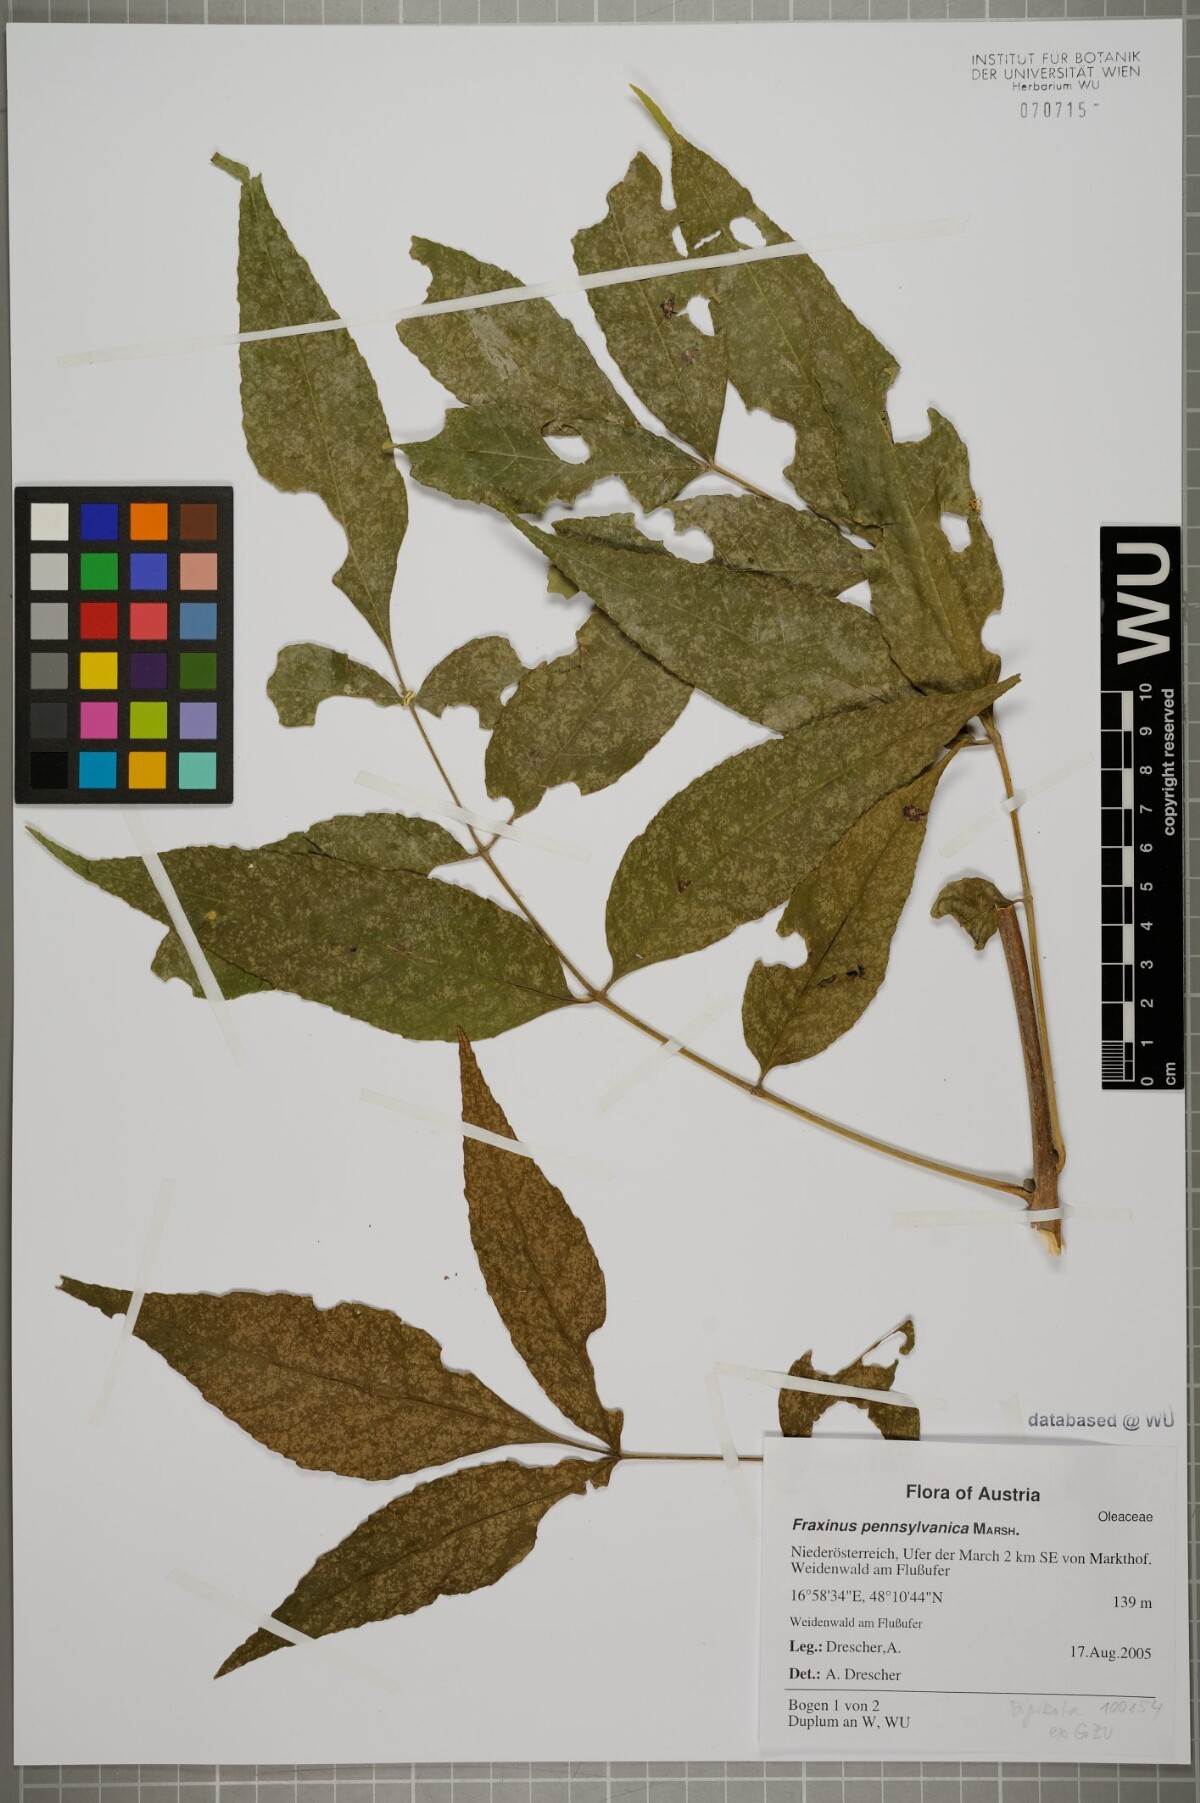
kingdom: Plantae
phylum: Tracheophyta
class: Magnoliopsida
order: Lamiales
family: Oleaceae
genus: Fraxinus
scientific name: Fraxinus pennsylvanica
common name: Green ash
